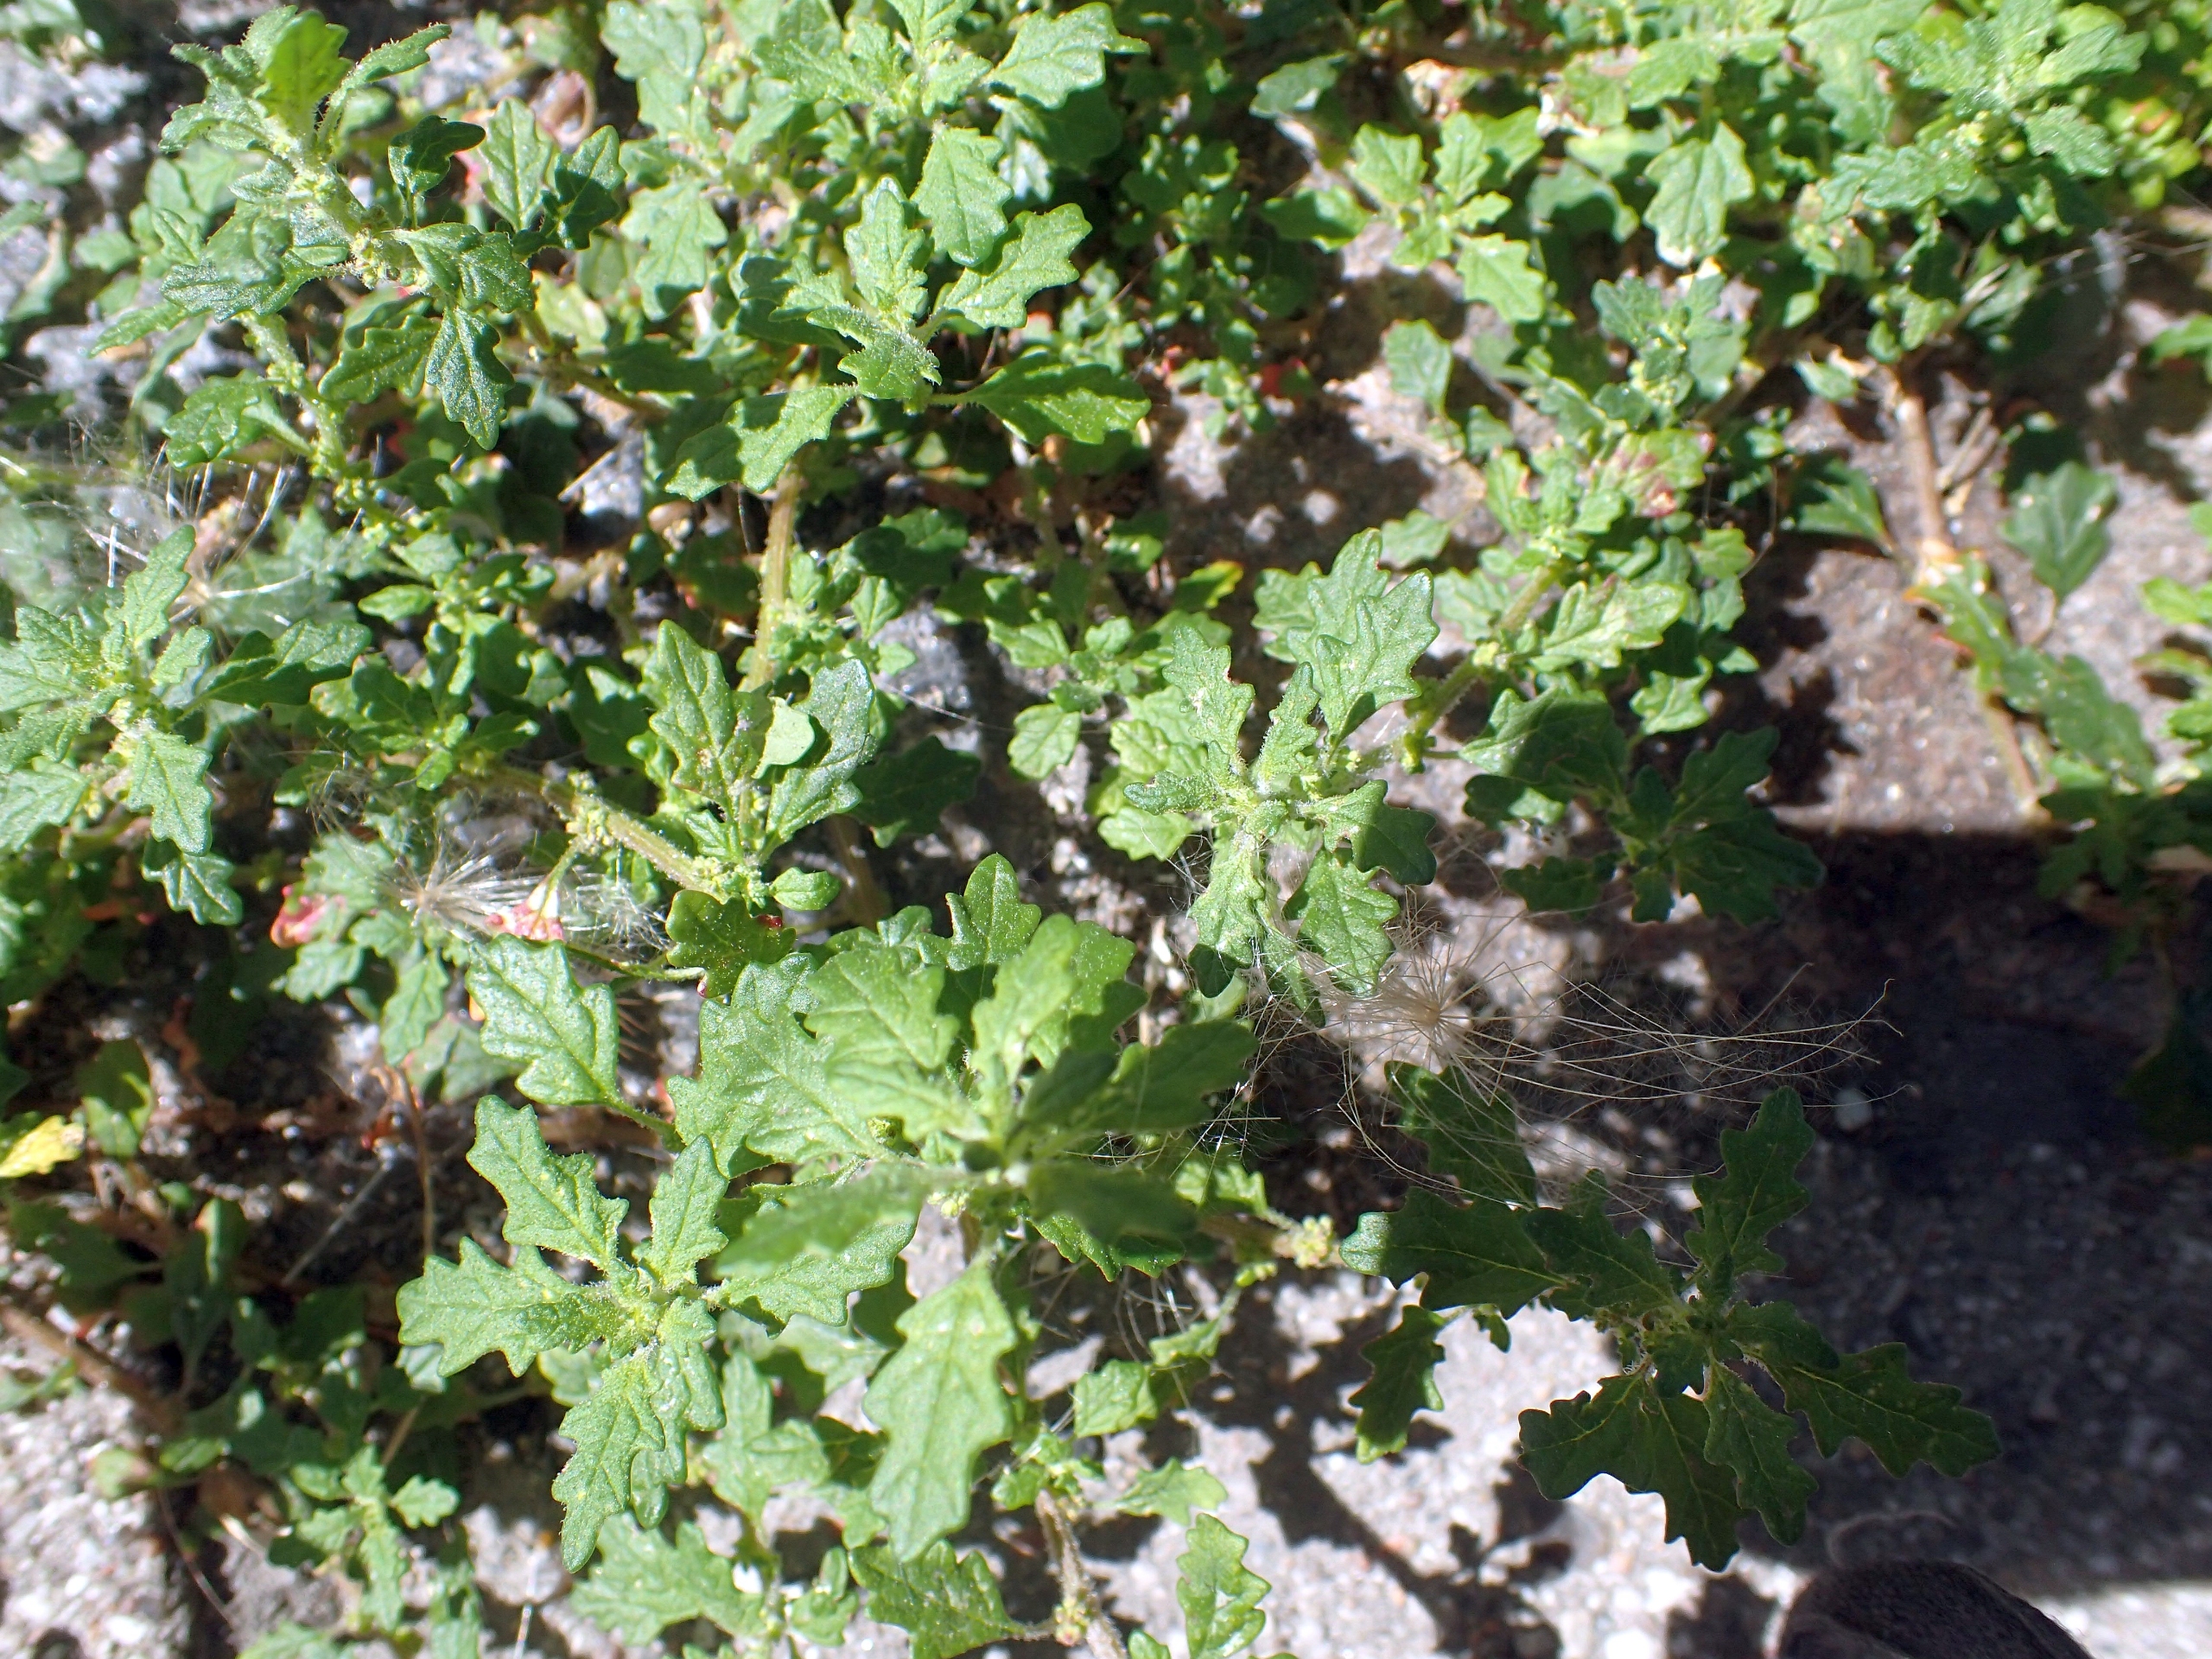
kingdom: Plantae
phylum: Tracheophyta
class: Magnoliopsida
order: Caryophyllales
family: Amaranthaceae
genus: Dysphania
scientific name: Dysphania pumilio
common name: Dværg-gåsefod
